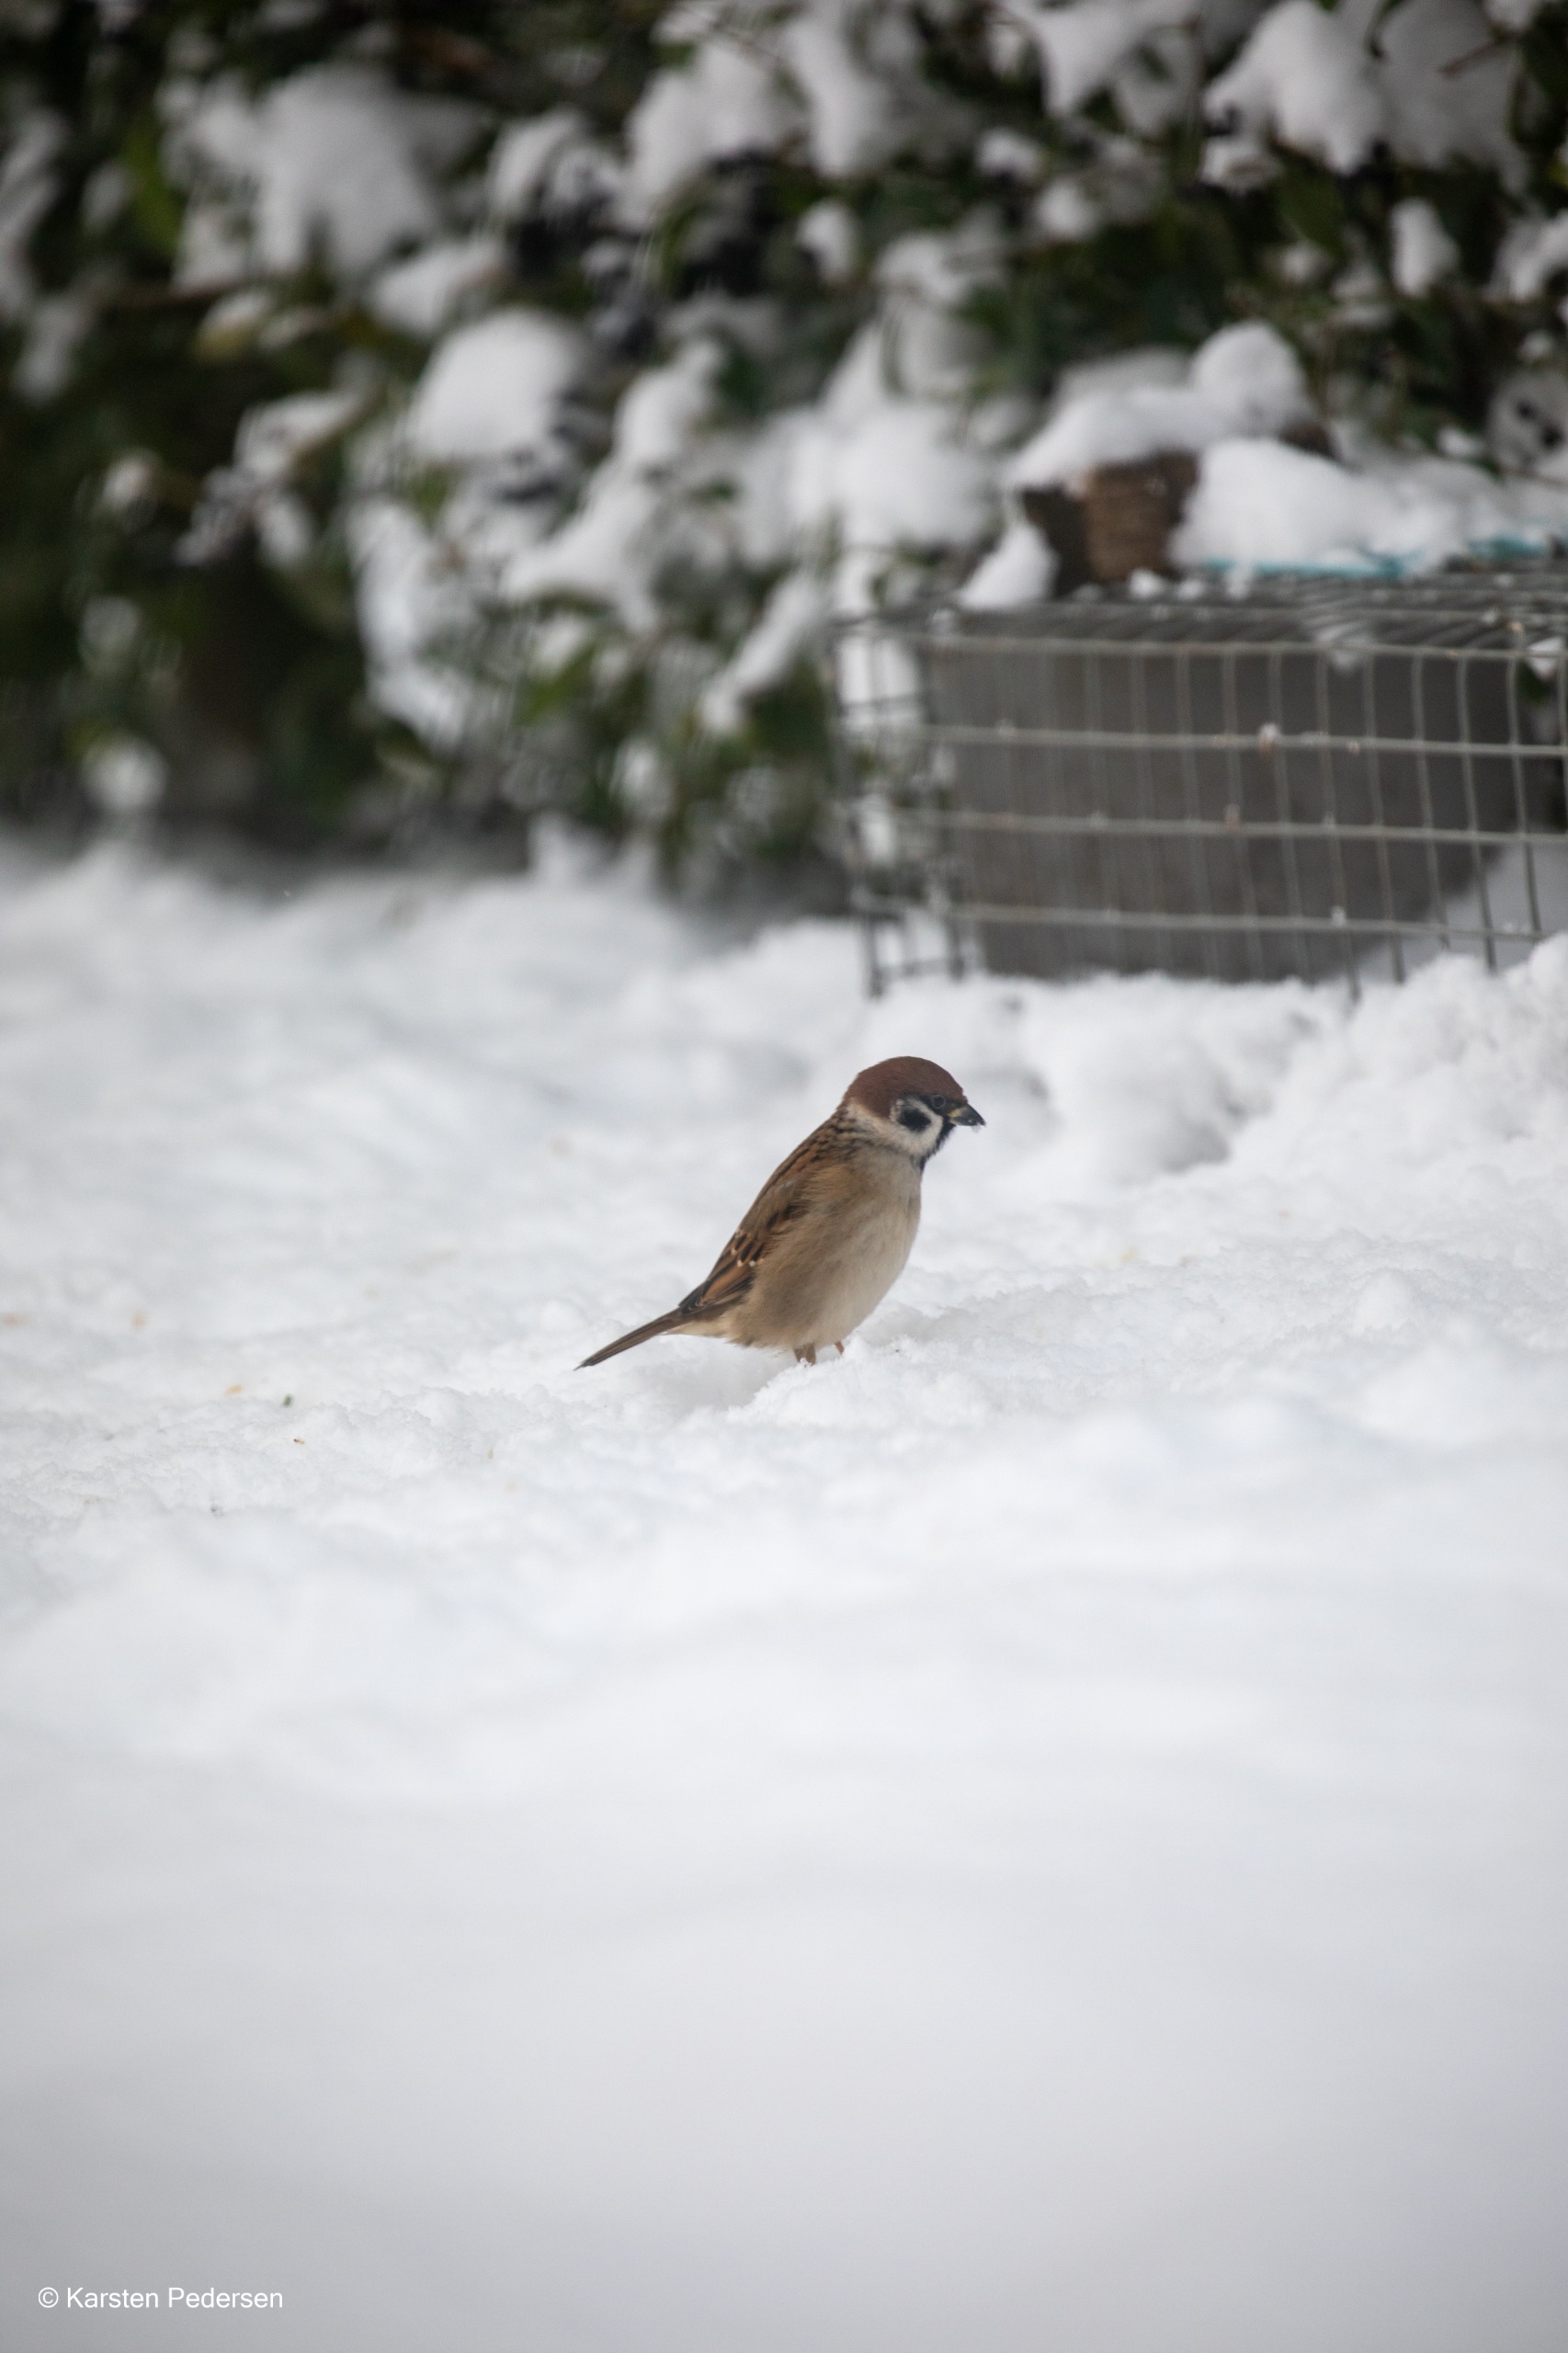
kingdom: Animalia
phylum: Chordata
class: Aves
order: Passeriformes
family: Passeridae
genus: Passer
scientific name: Passer montanus
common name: Skovspurv
